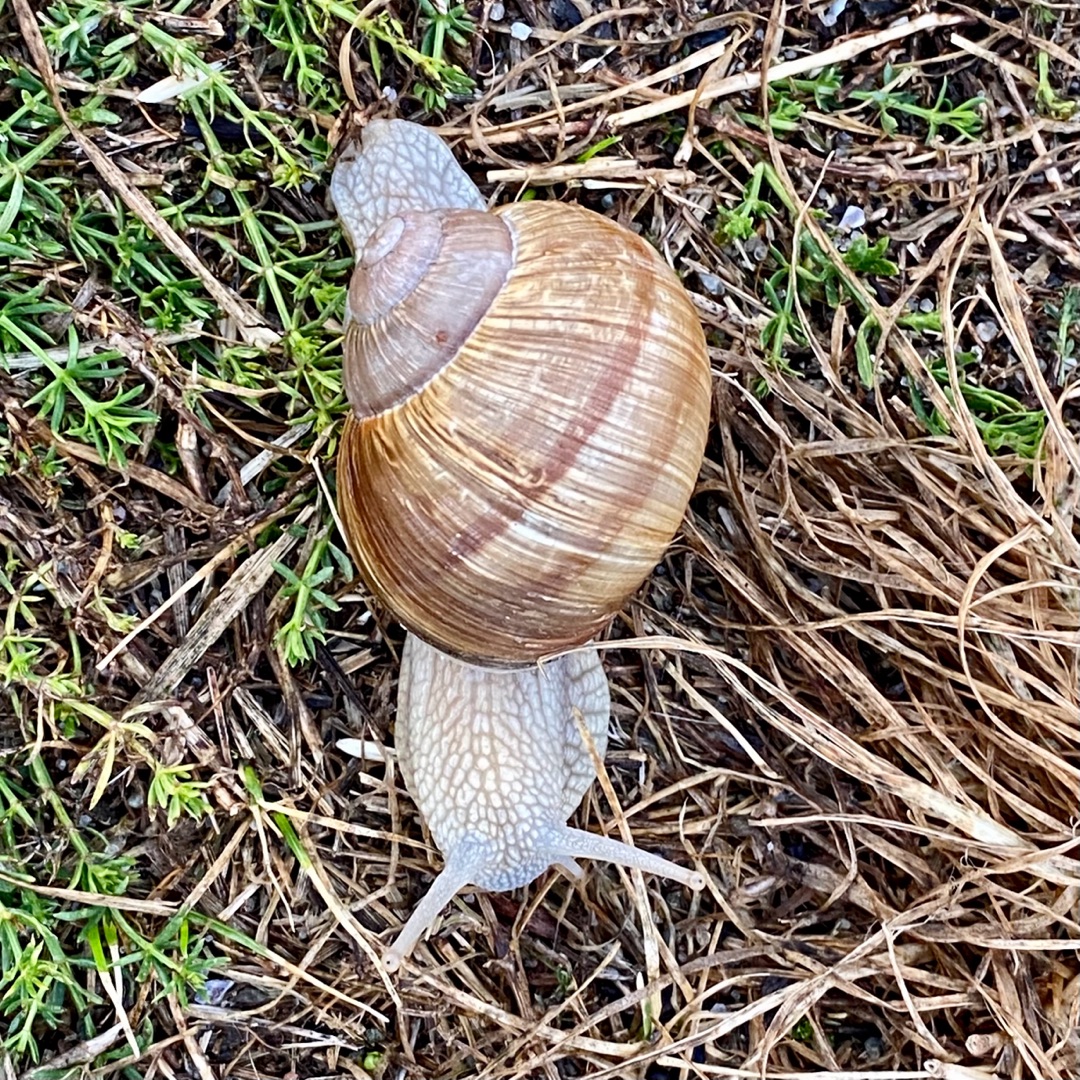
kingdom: Animalia
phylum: Mollusca
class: Gastropoda
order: Stylommatophora
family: Helicidae
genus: Helix
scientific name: Helix pomatia
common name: Vinbjergsnegl
